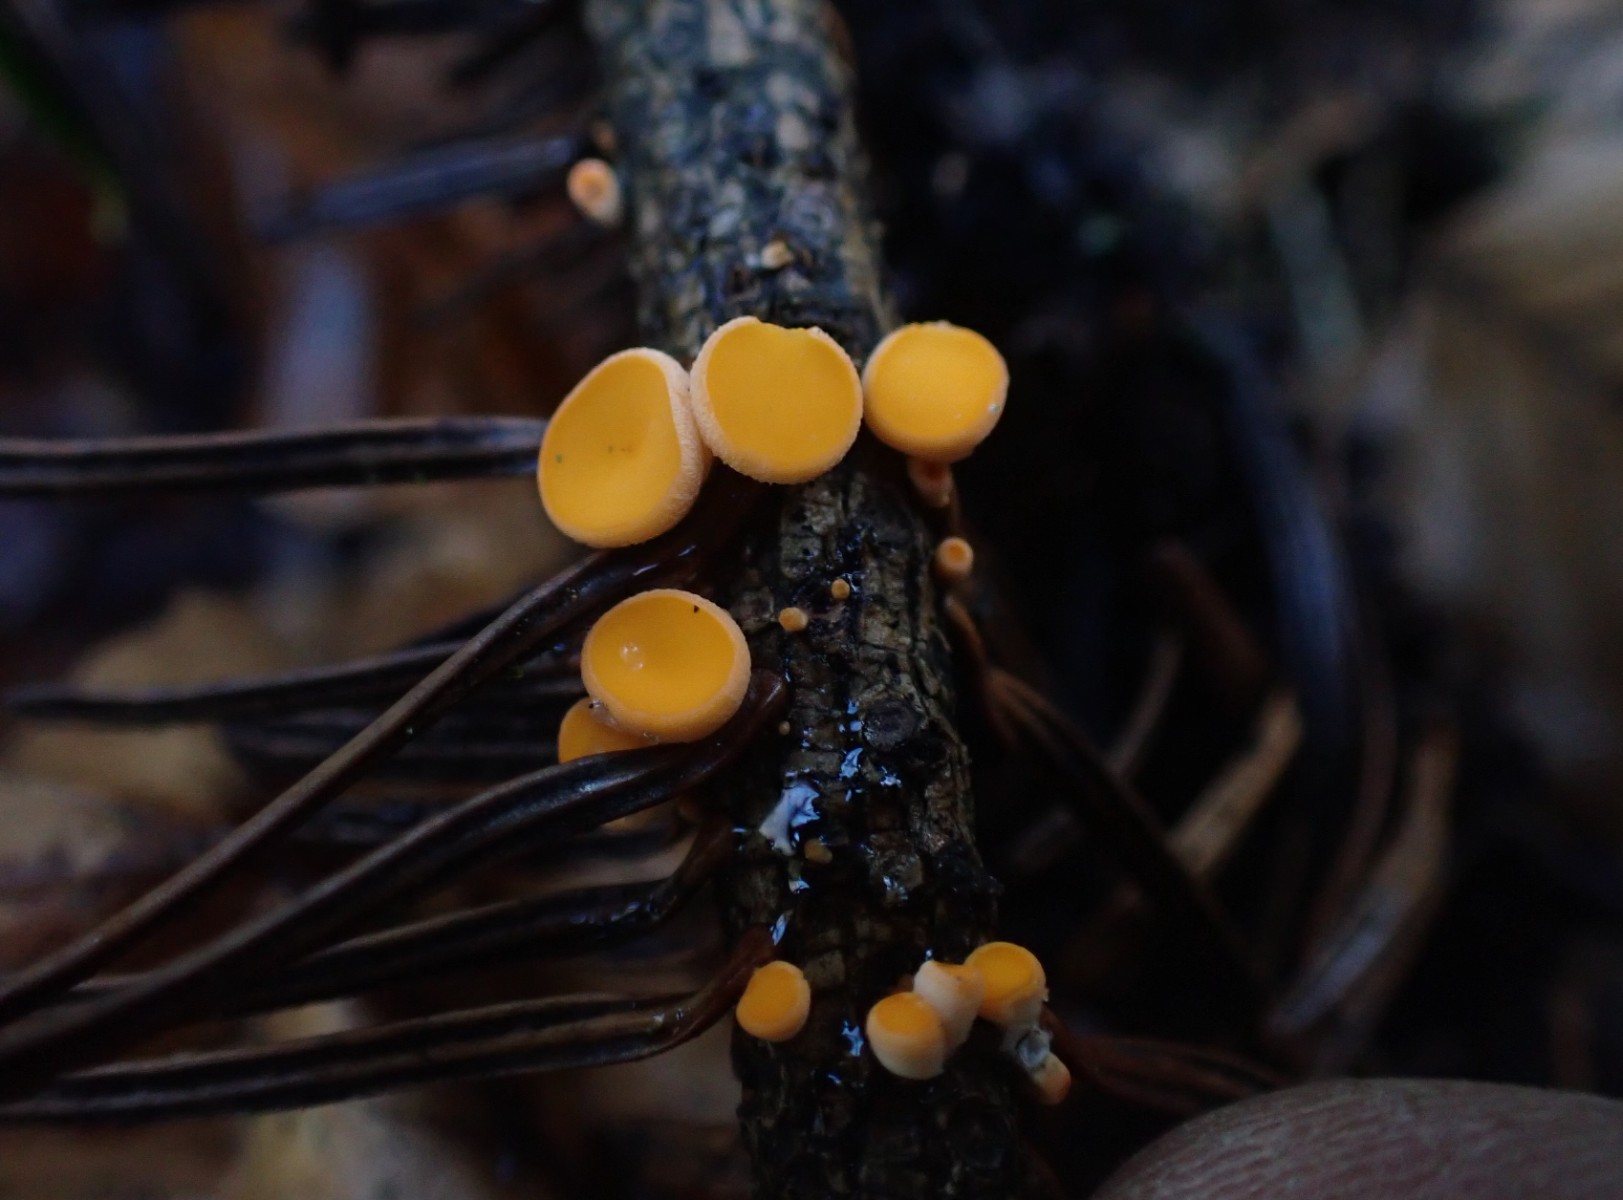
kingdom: Fungi
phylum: Ascomycota
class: Pezizomycetes
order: Pezizales
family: Sarcoscyphaceae
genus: Pithya
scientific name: Pithya vulgaris
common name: stor dukatbæger
